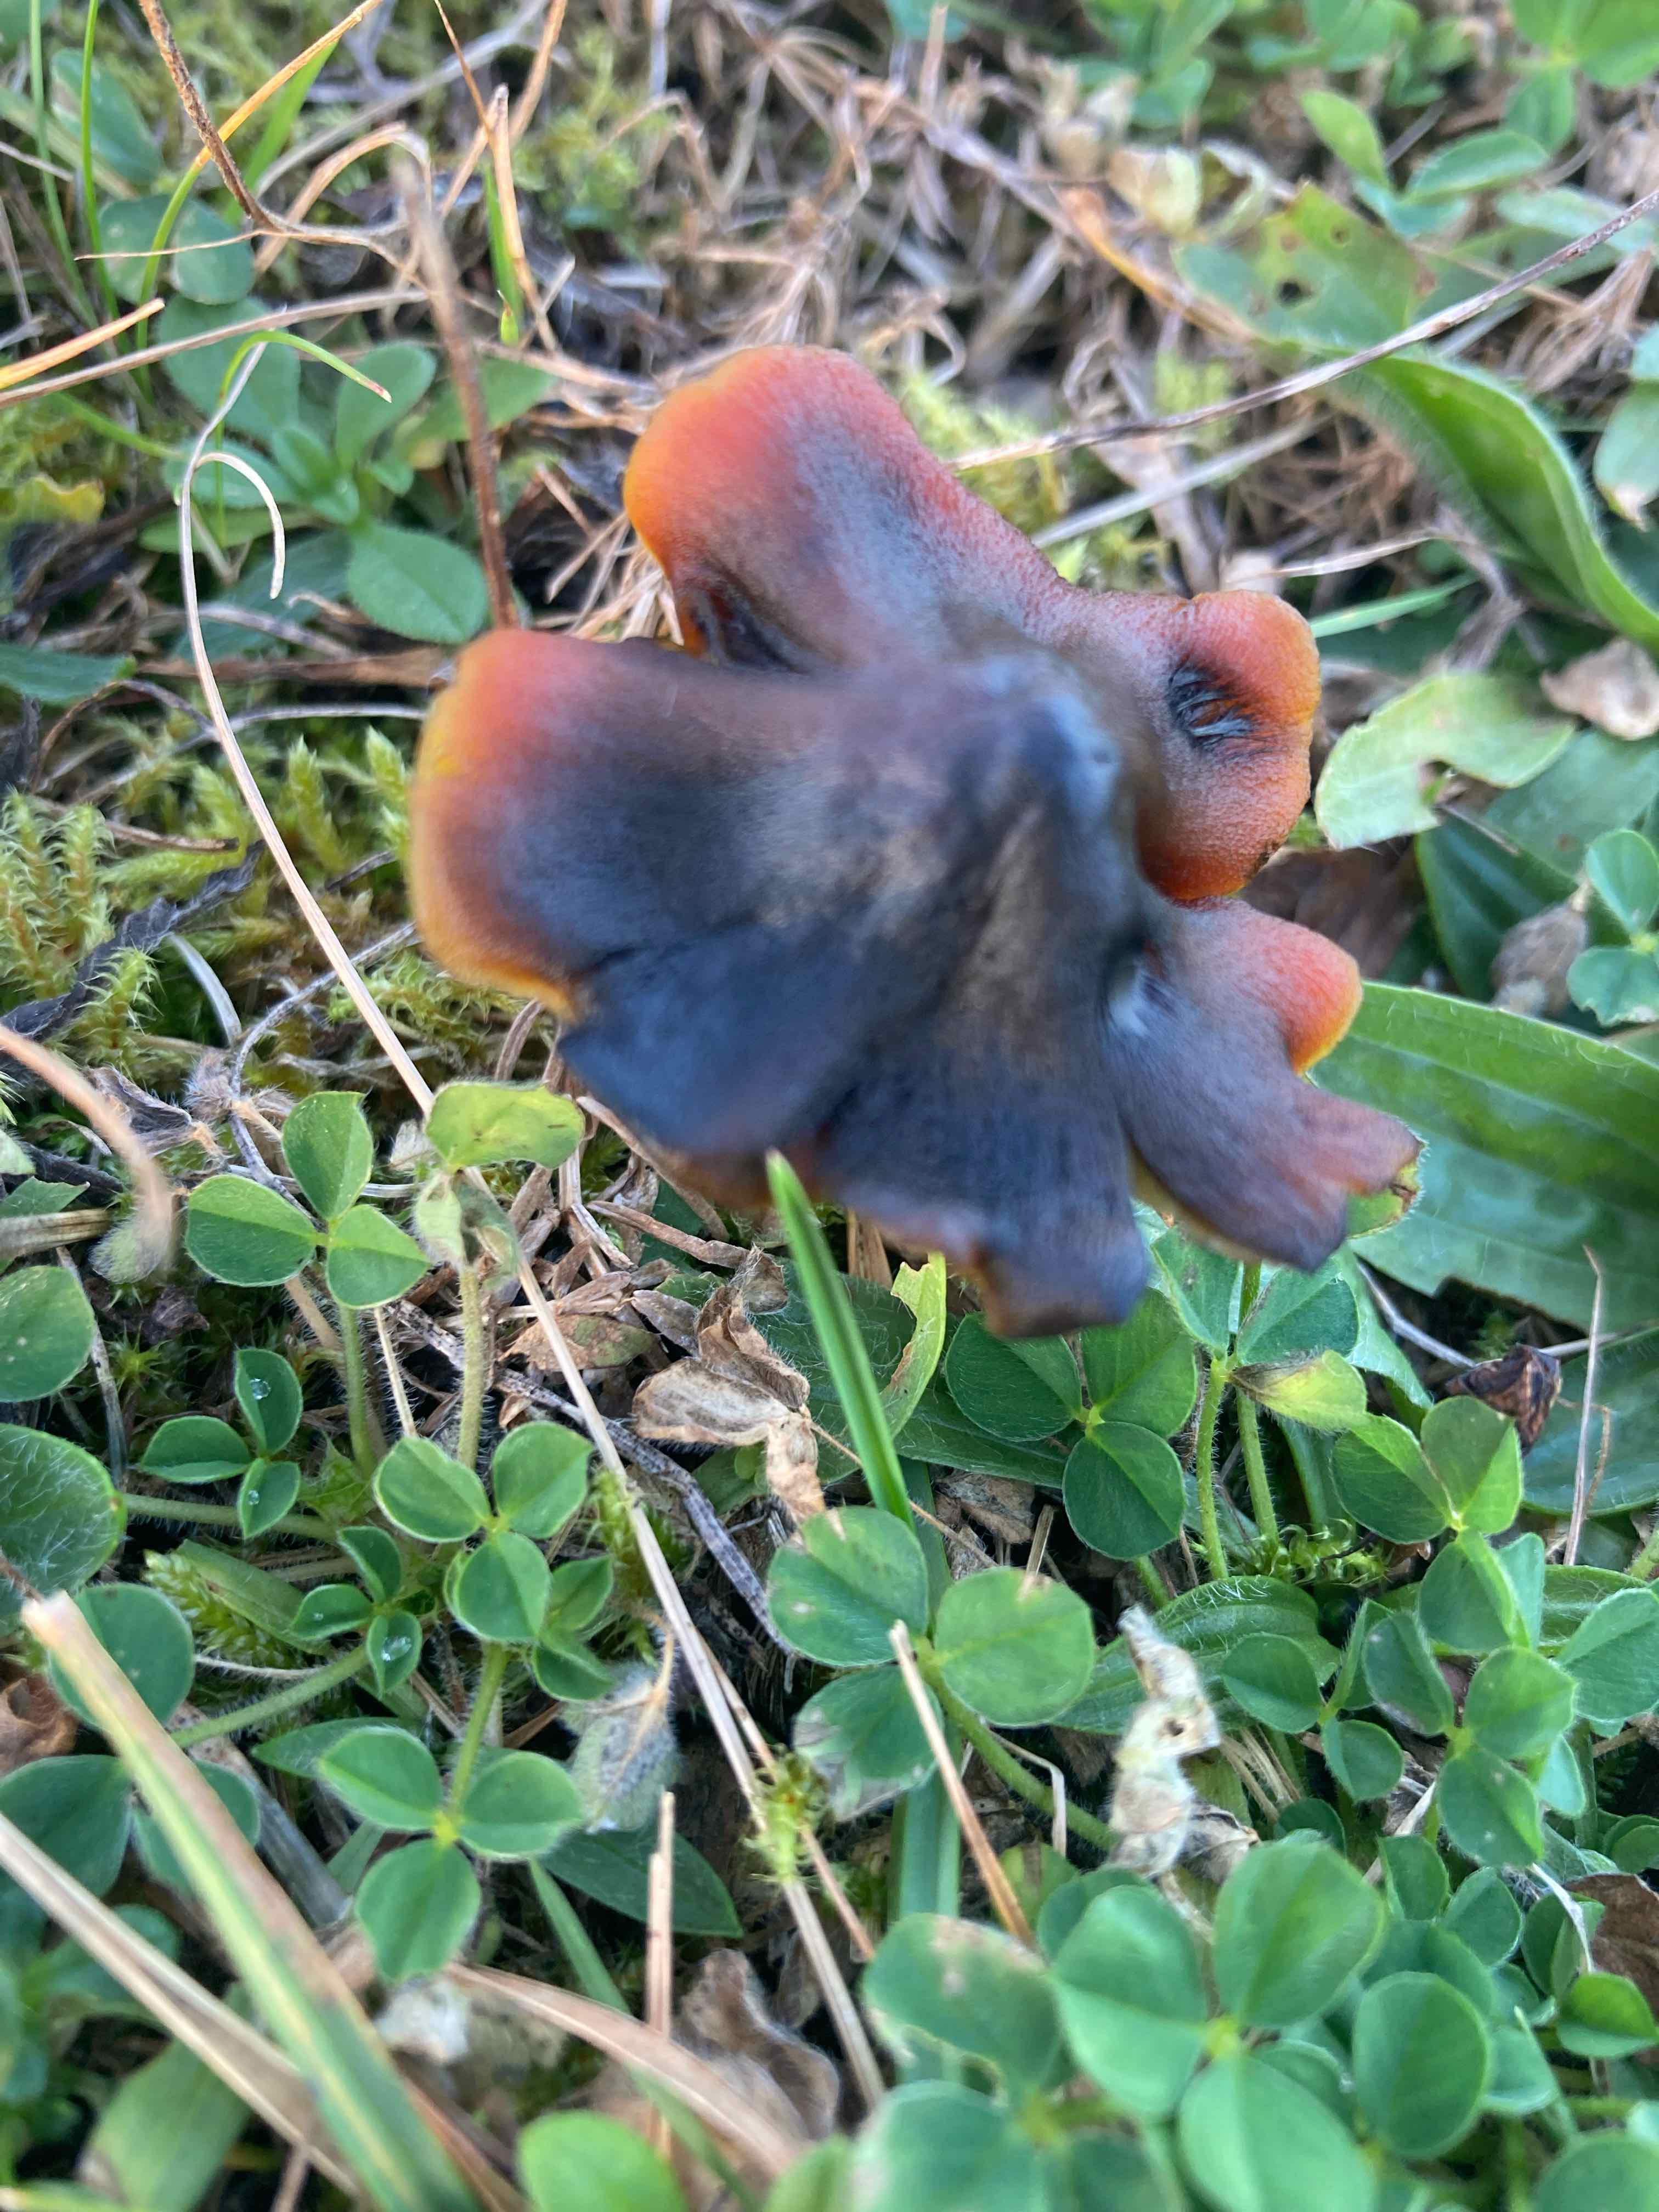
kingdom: Fungi
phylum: Basidiomycota
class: Agaricomycetes
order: Agaricales
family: Hygrophoraceae
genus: Hygrocybe
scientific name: Hygrocybe conica
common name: kegle-vokshat
